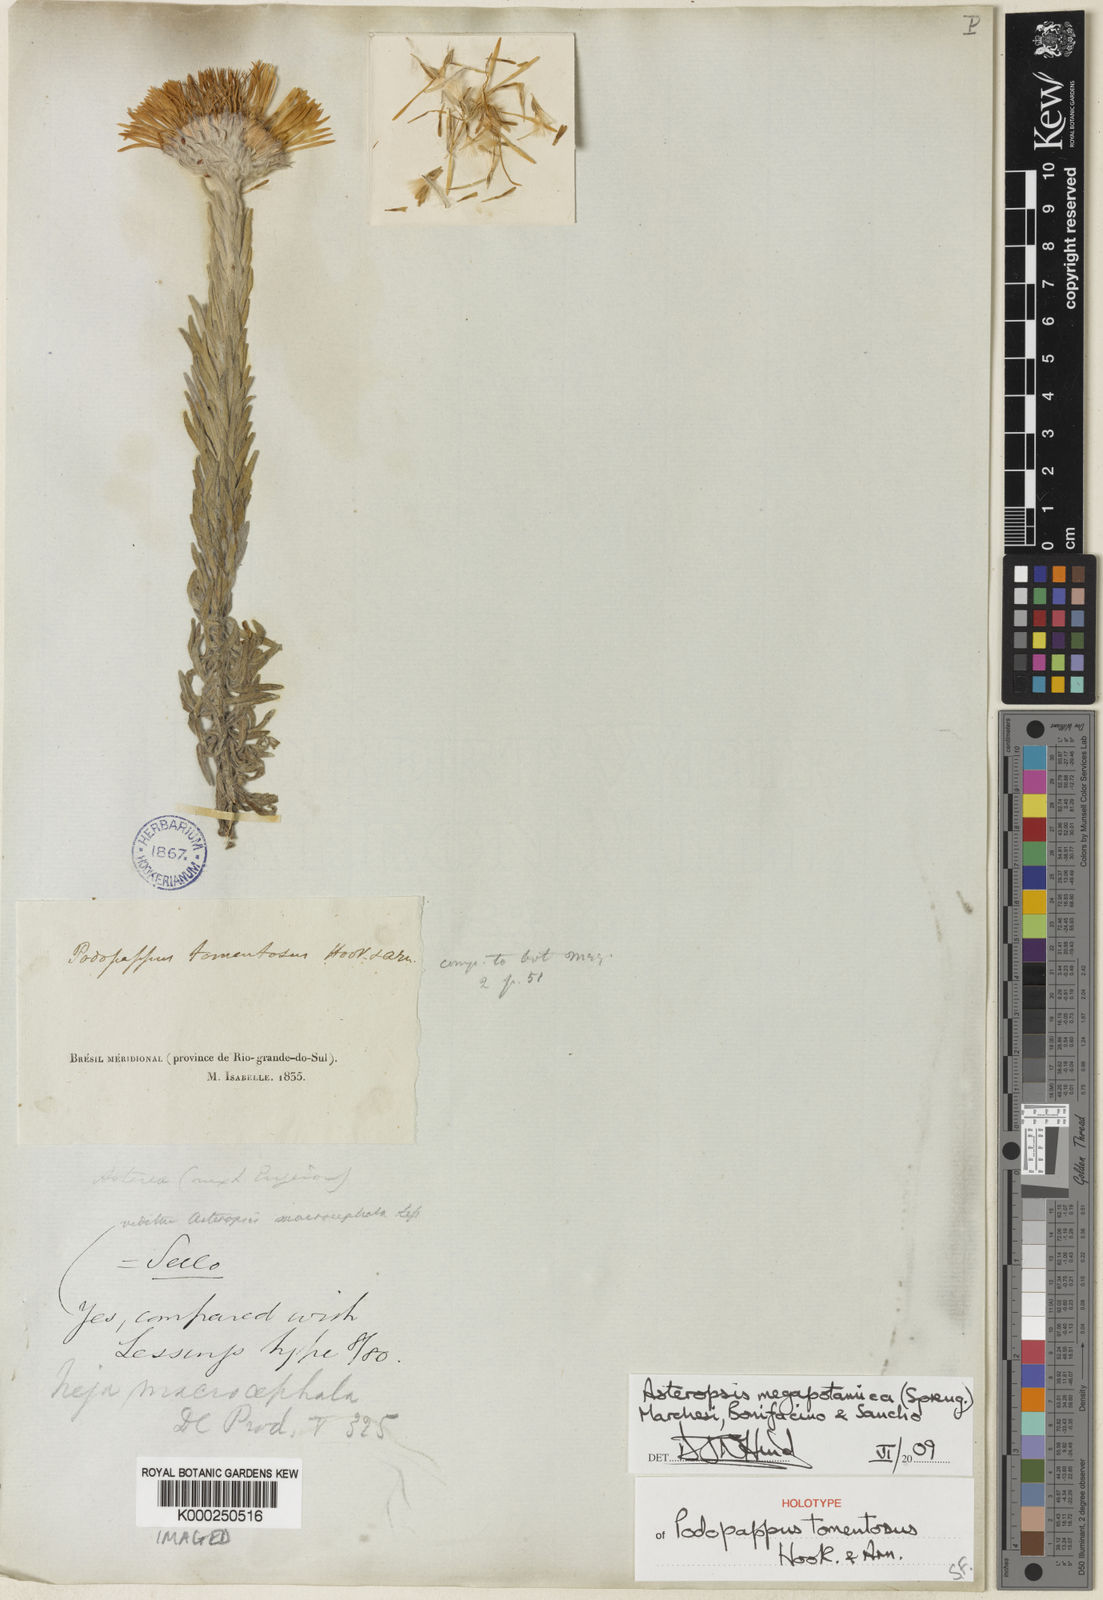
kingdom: Plantae
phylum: Tracheophyta
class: Magnoliopsida
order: Asterales
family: Asteraceae
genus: Stenachaenium
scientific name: Stenachaenium megapotamicum
